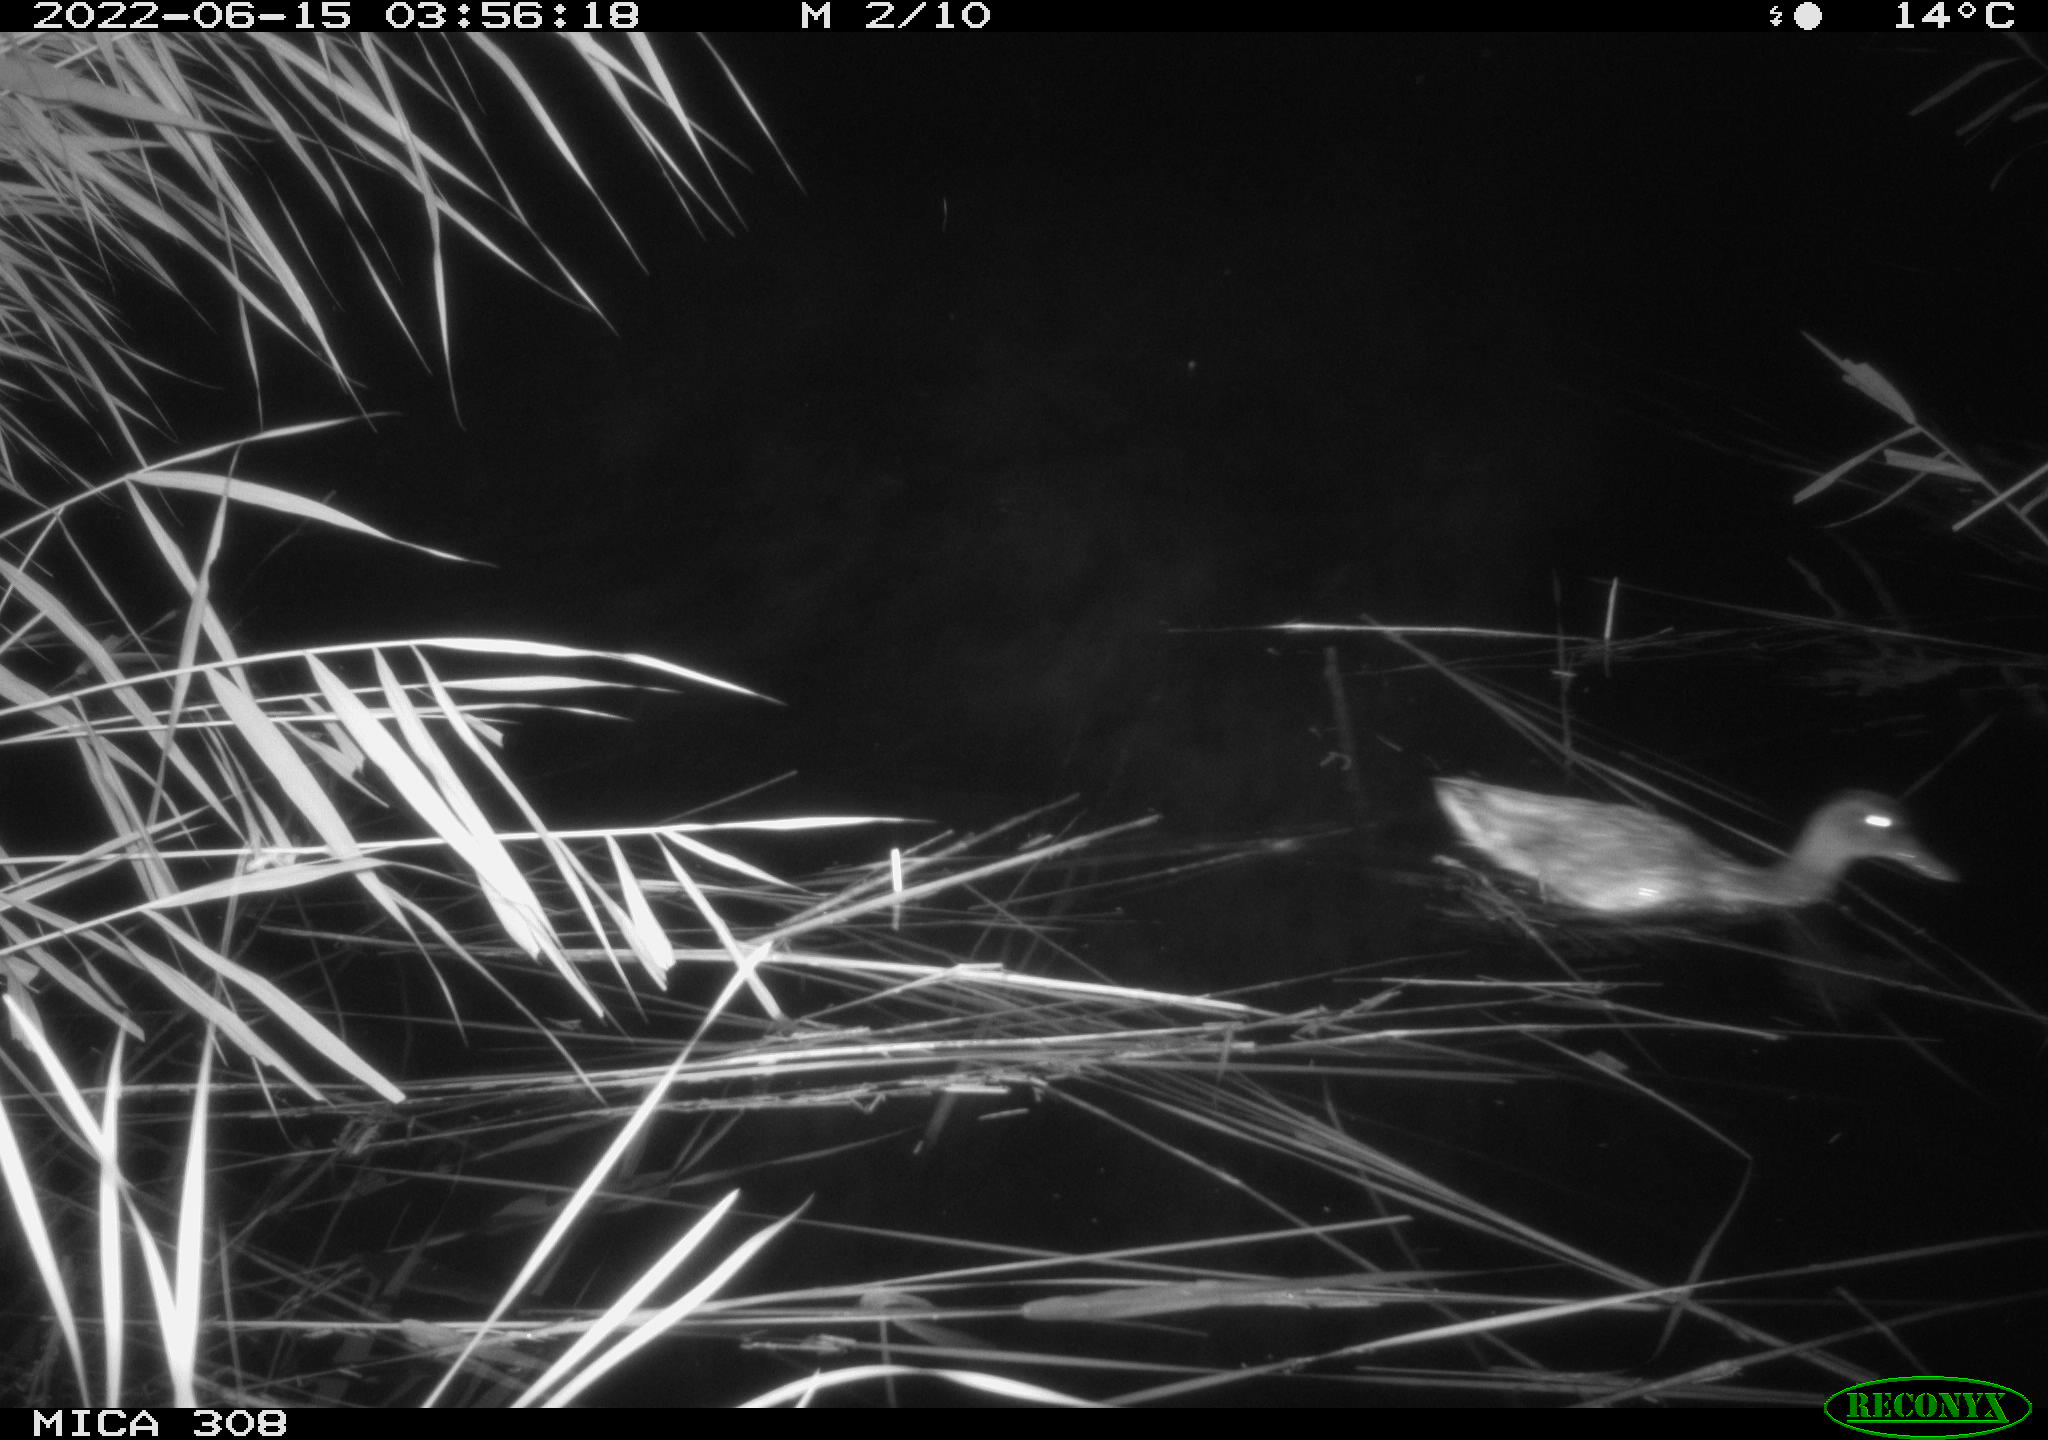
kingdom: Animalia
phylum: Chordata
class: Aves
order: Anseriformes
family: Anatidae
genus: Anas
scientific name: Anas platyrhynchos
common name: Mallard
